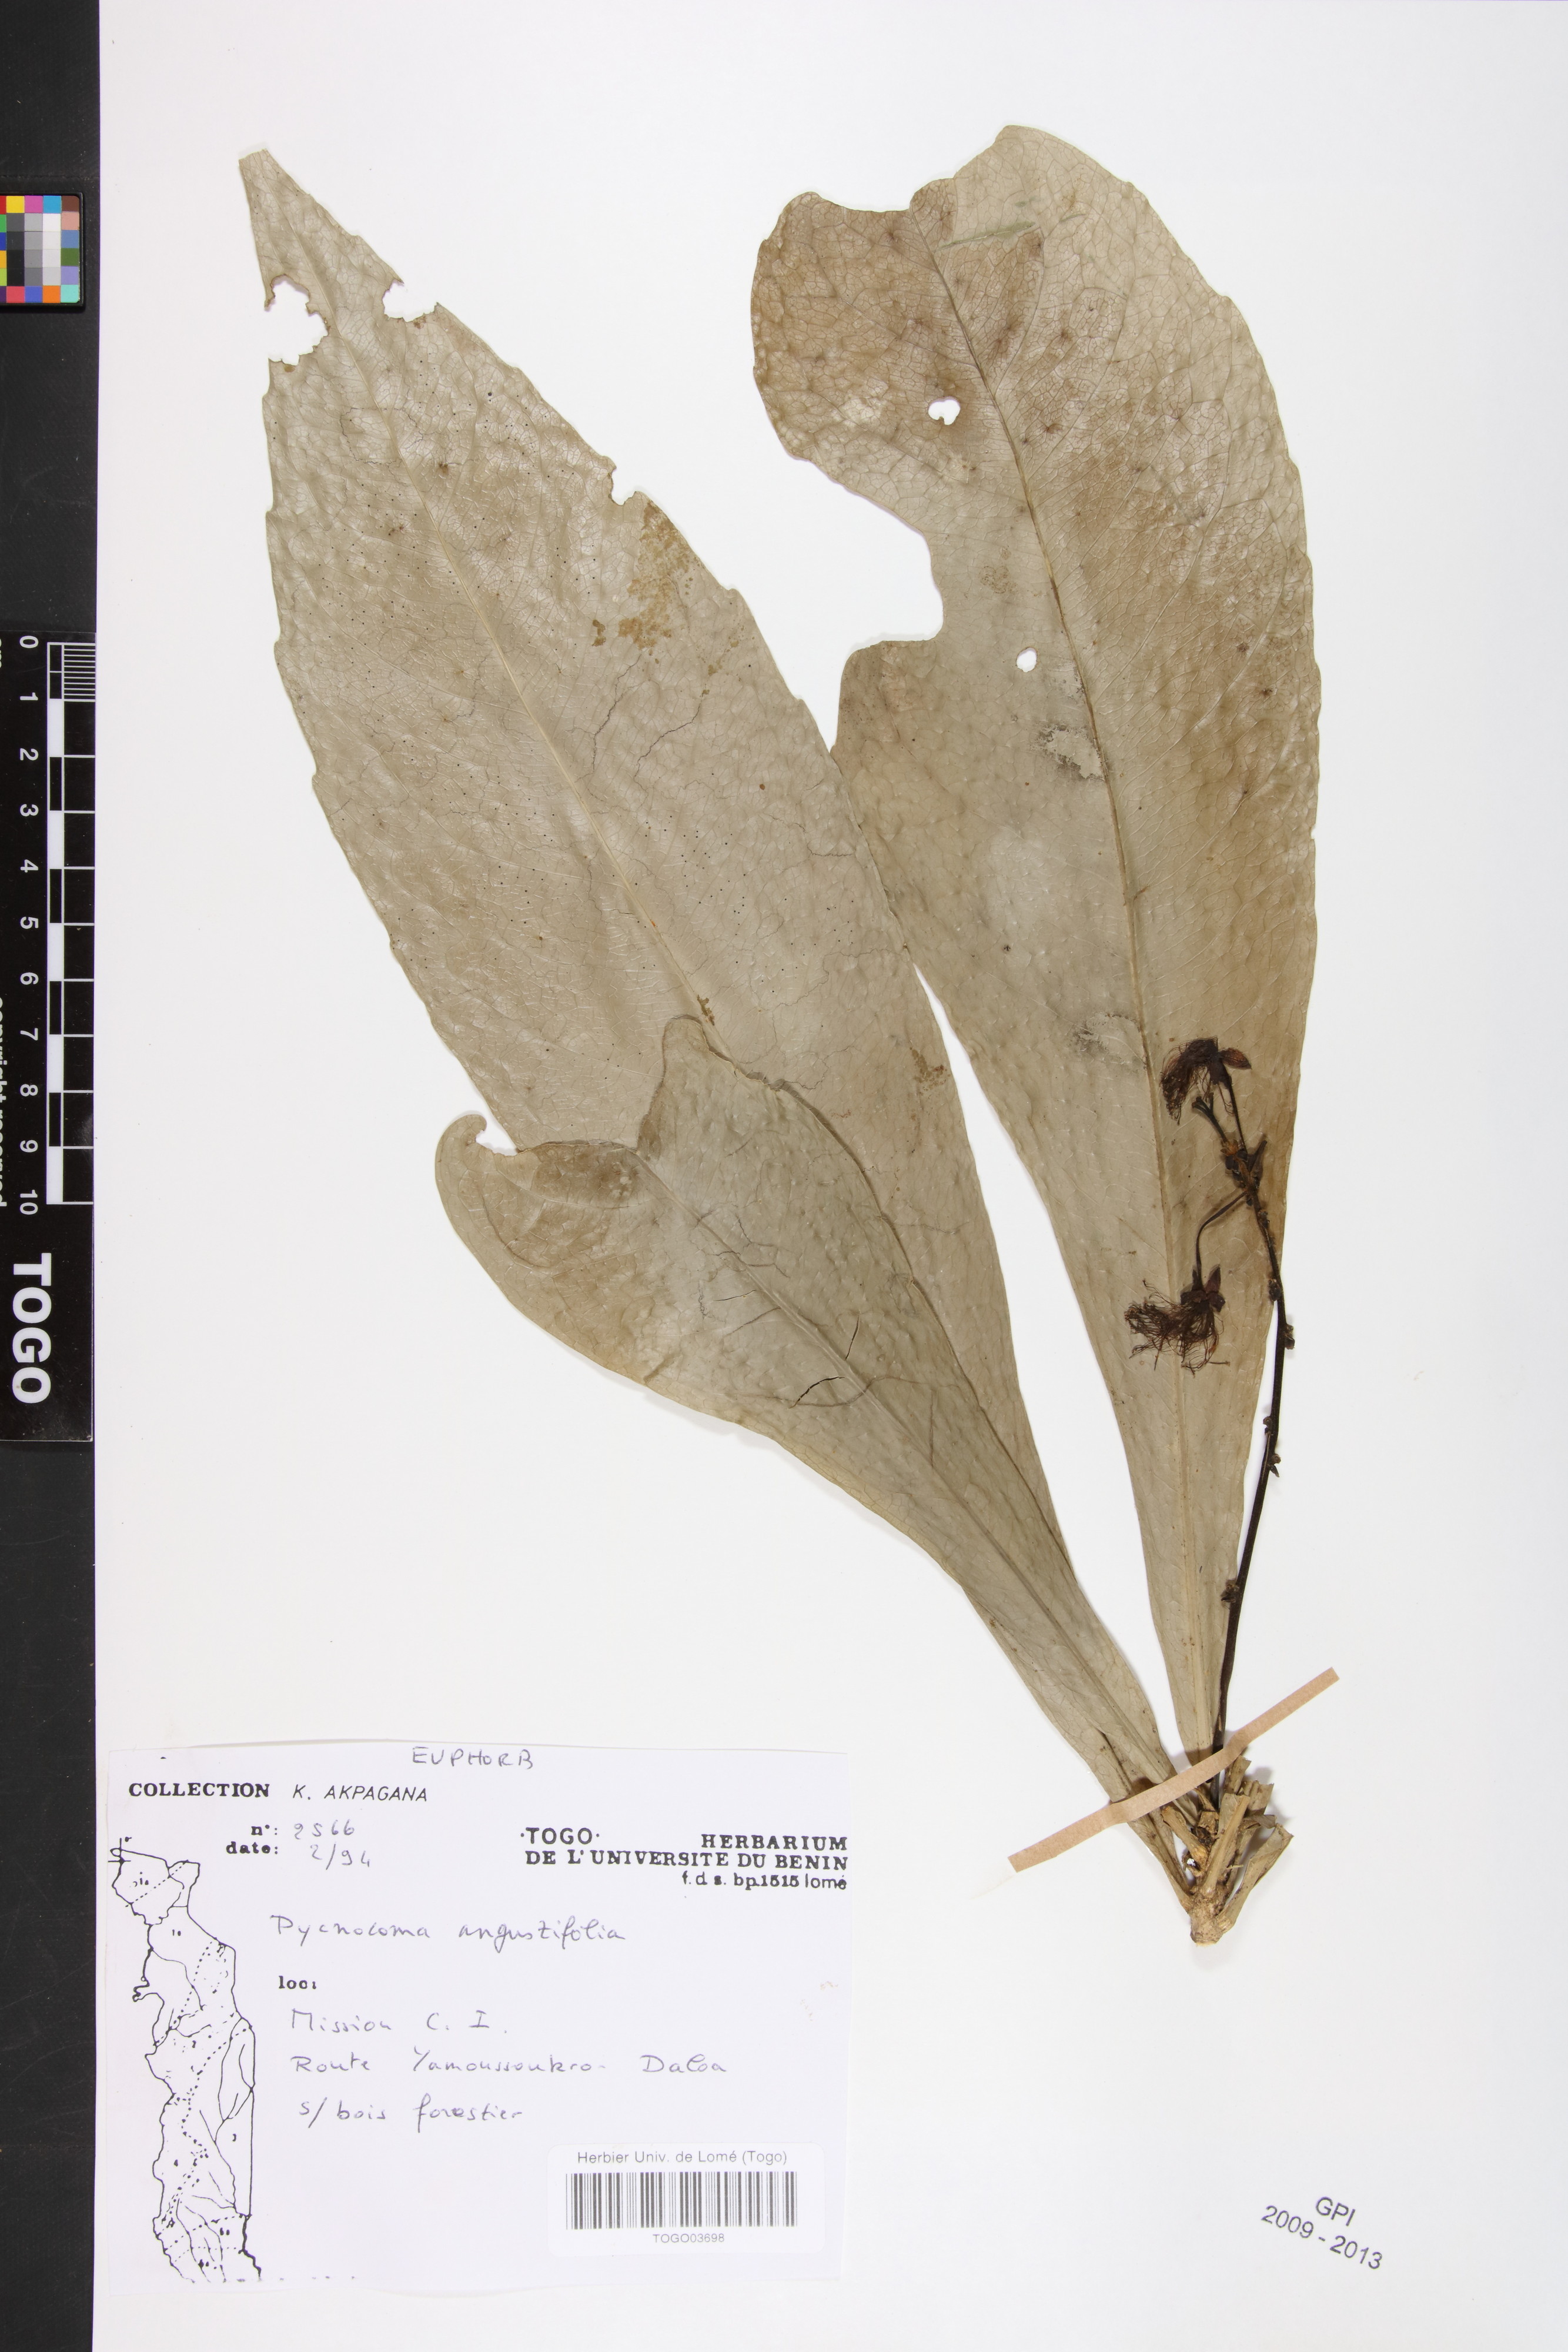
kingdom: Plantae
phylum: Tracheophyta
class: Magnoliopsida
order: Malpighiales
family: Euphorbiaceae
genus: Pycnocoma
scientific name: Pycnocoma angustifolia
